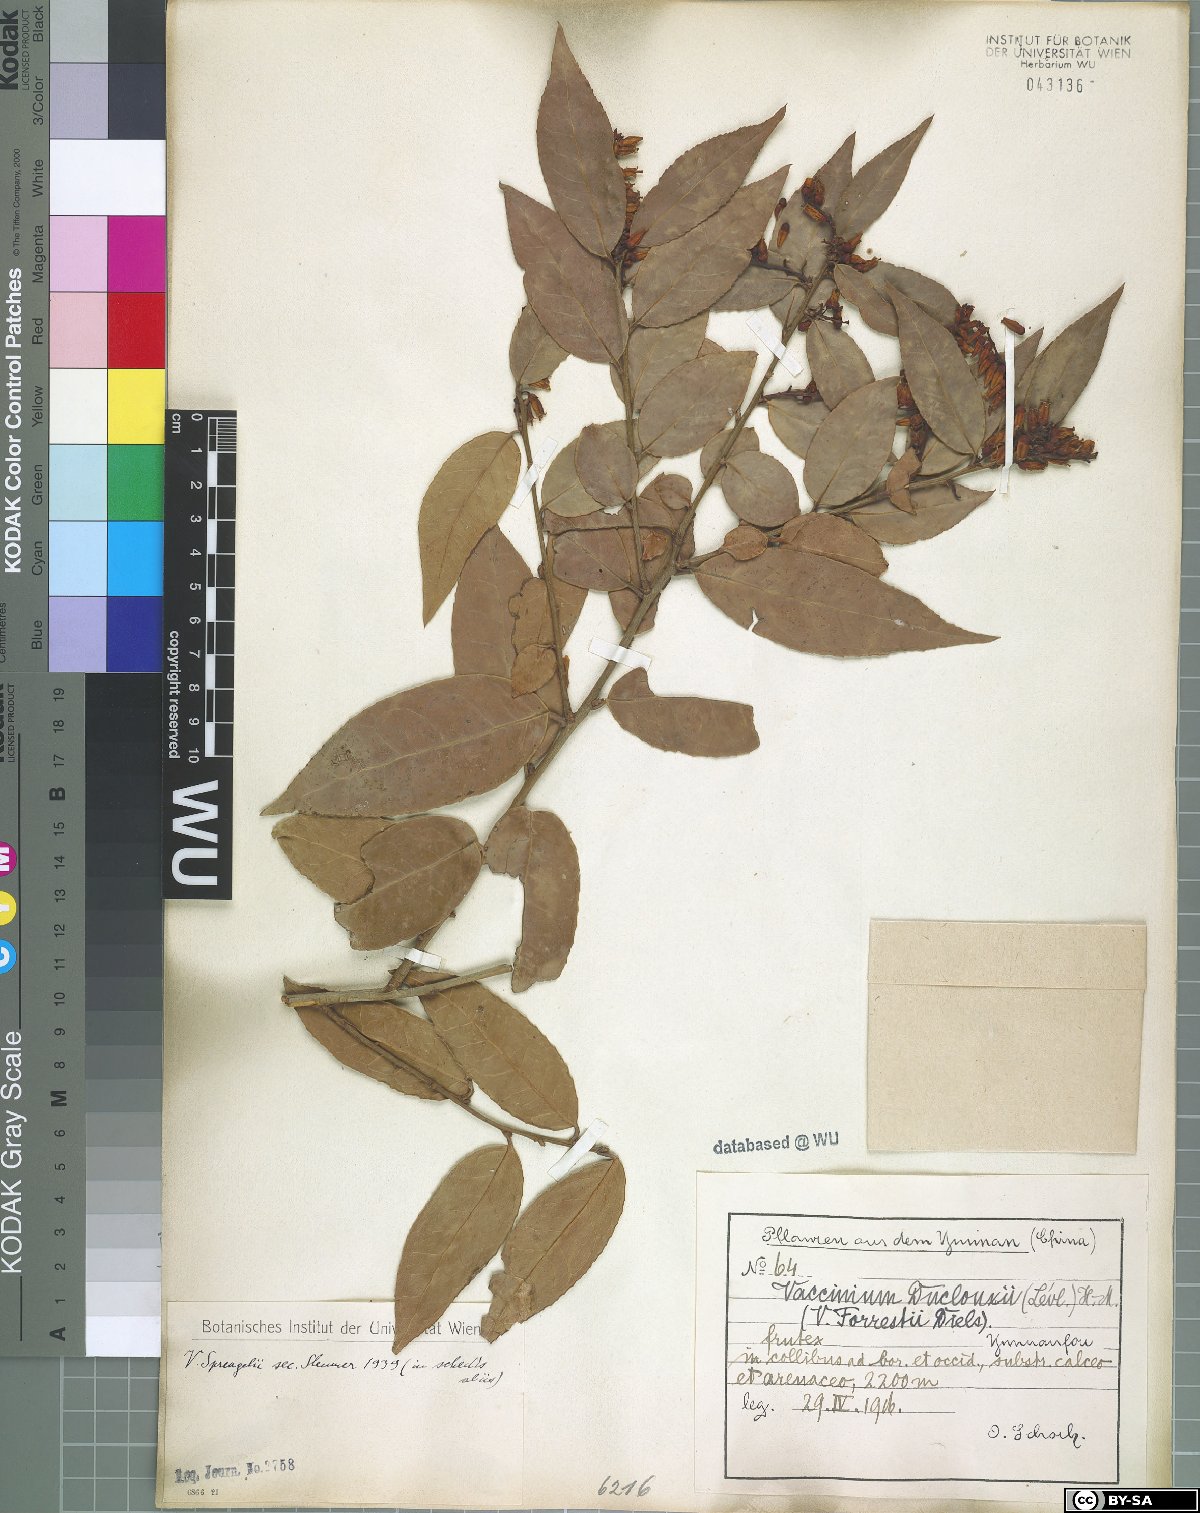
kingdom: Plantae
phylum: Tracheophyta
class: Magnoliopsida
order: Ericales
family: Ericaceae
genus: Vaccinium
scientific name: Vaccinium sprengelii
